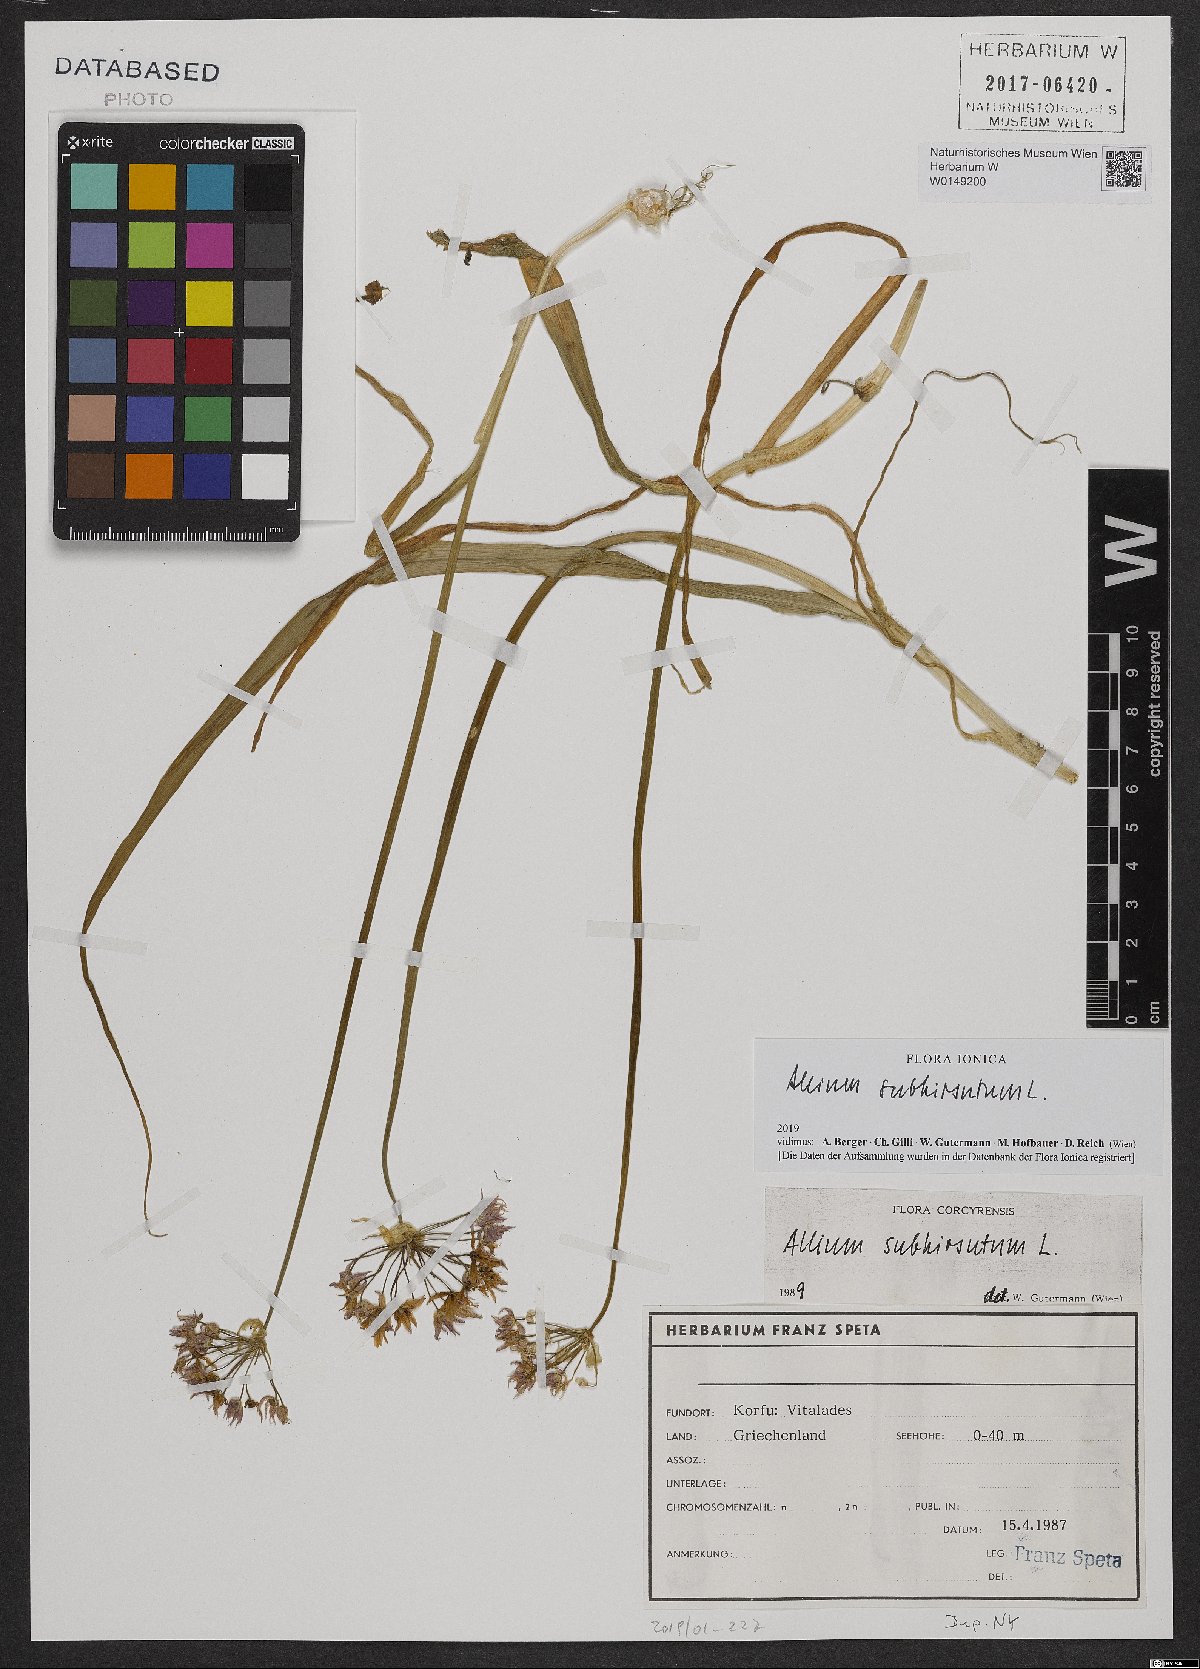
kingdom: Plantae
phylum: Tracheophyta
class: Liliopsida
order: Asparagales
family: Amaryllidaceae
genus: Allium
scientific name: Allium subhirsutum
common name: Hairy garlic
